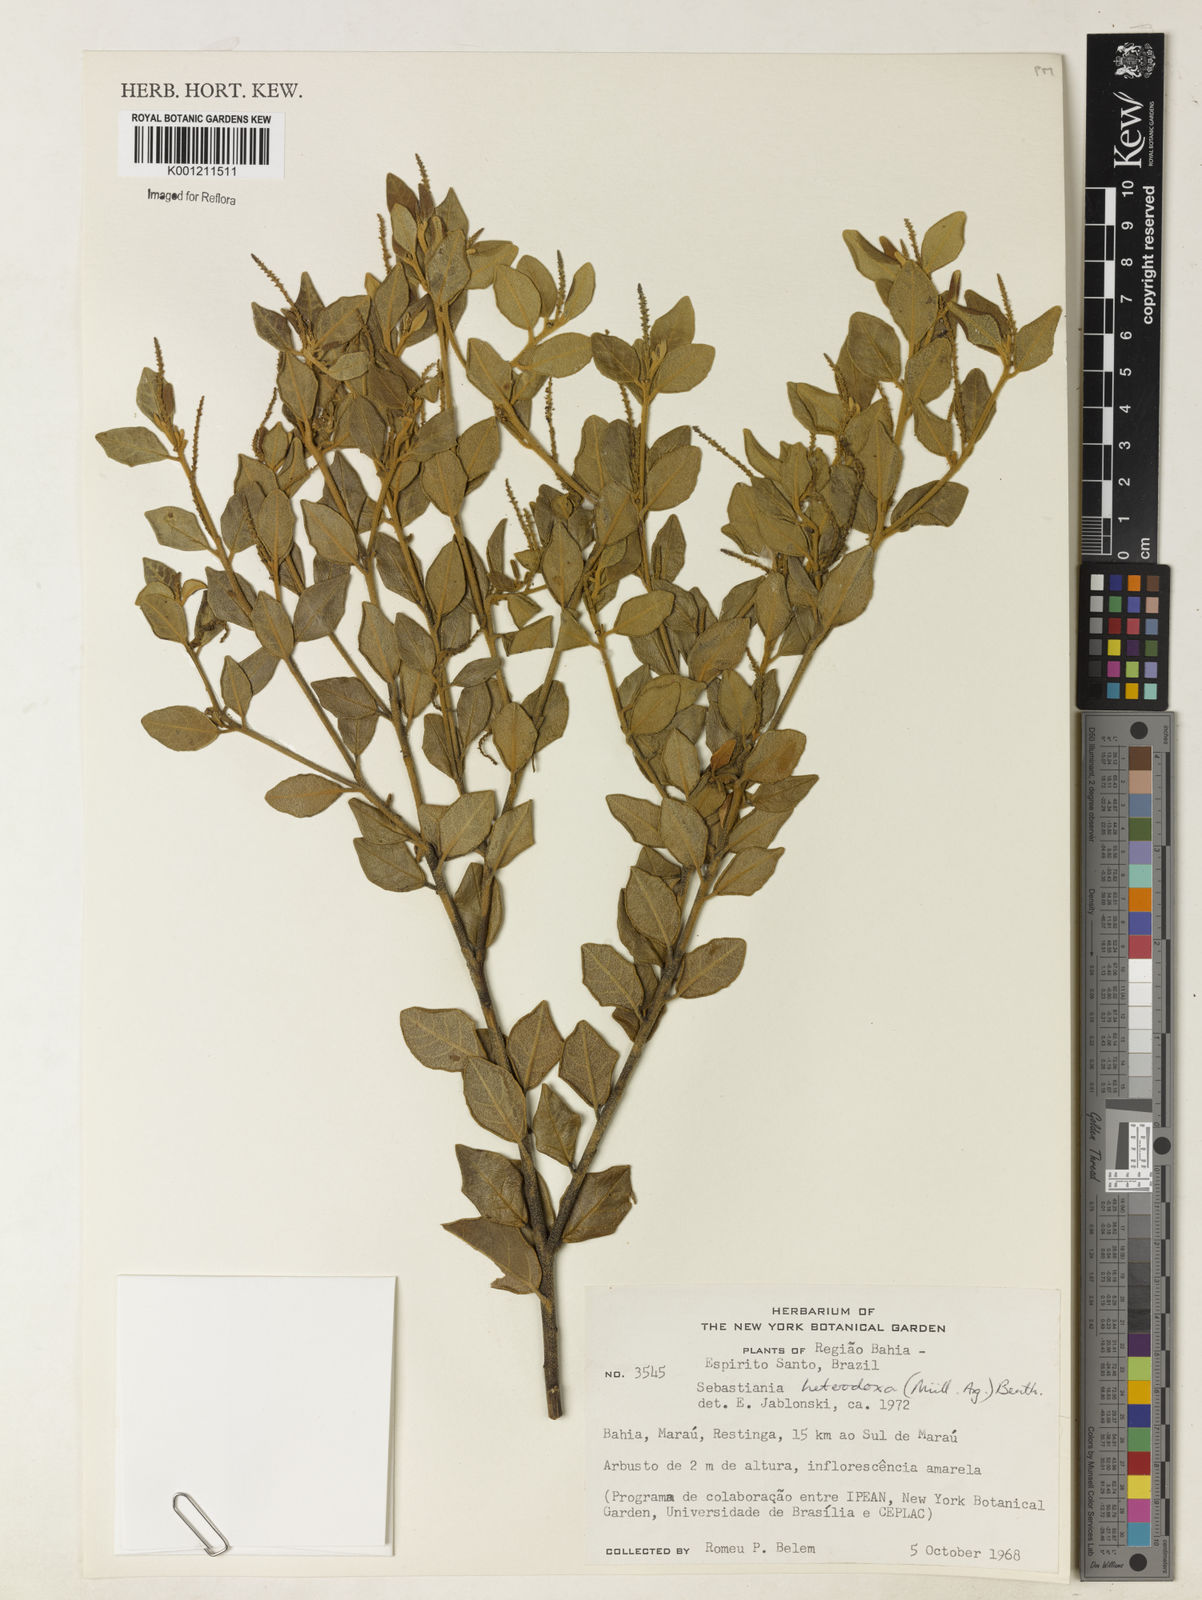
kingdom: Plantae
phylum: Tracheophyta
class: Magnoliopsida
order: Malpighiales
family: Euphorbiaceae
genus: Microstachys
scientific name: Microstachys
